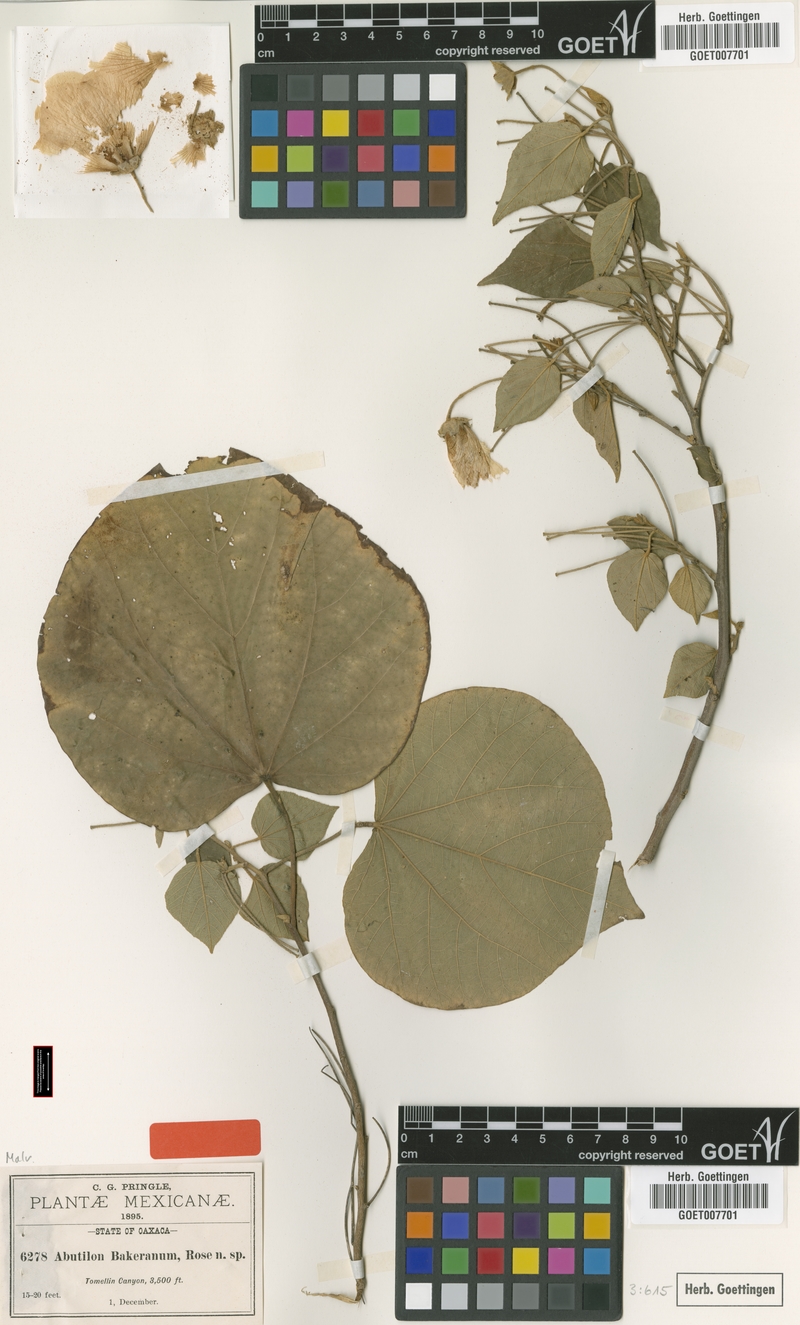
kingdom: Plantae
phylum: Tracheophyta
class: Magnoliopsida
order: Malvales
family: Malvaceae
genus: Bakeridesia
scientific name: Bakeridesia bakeriana
